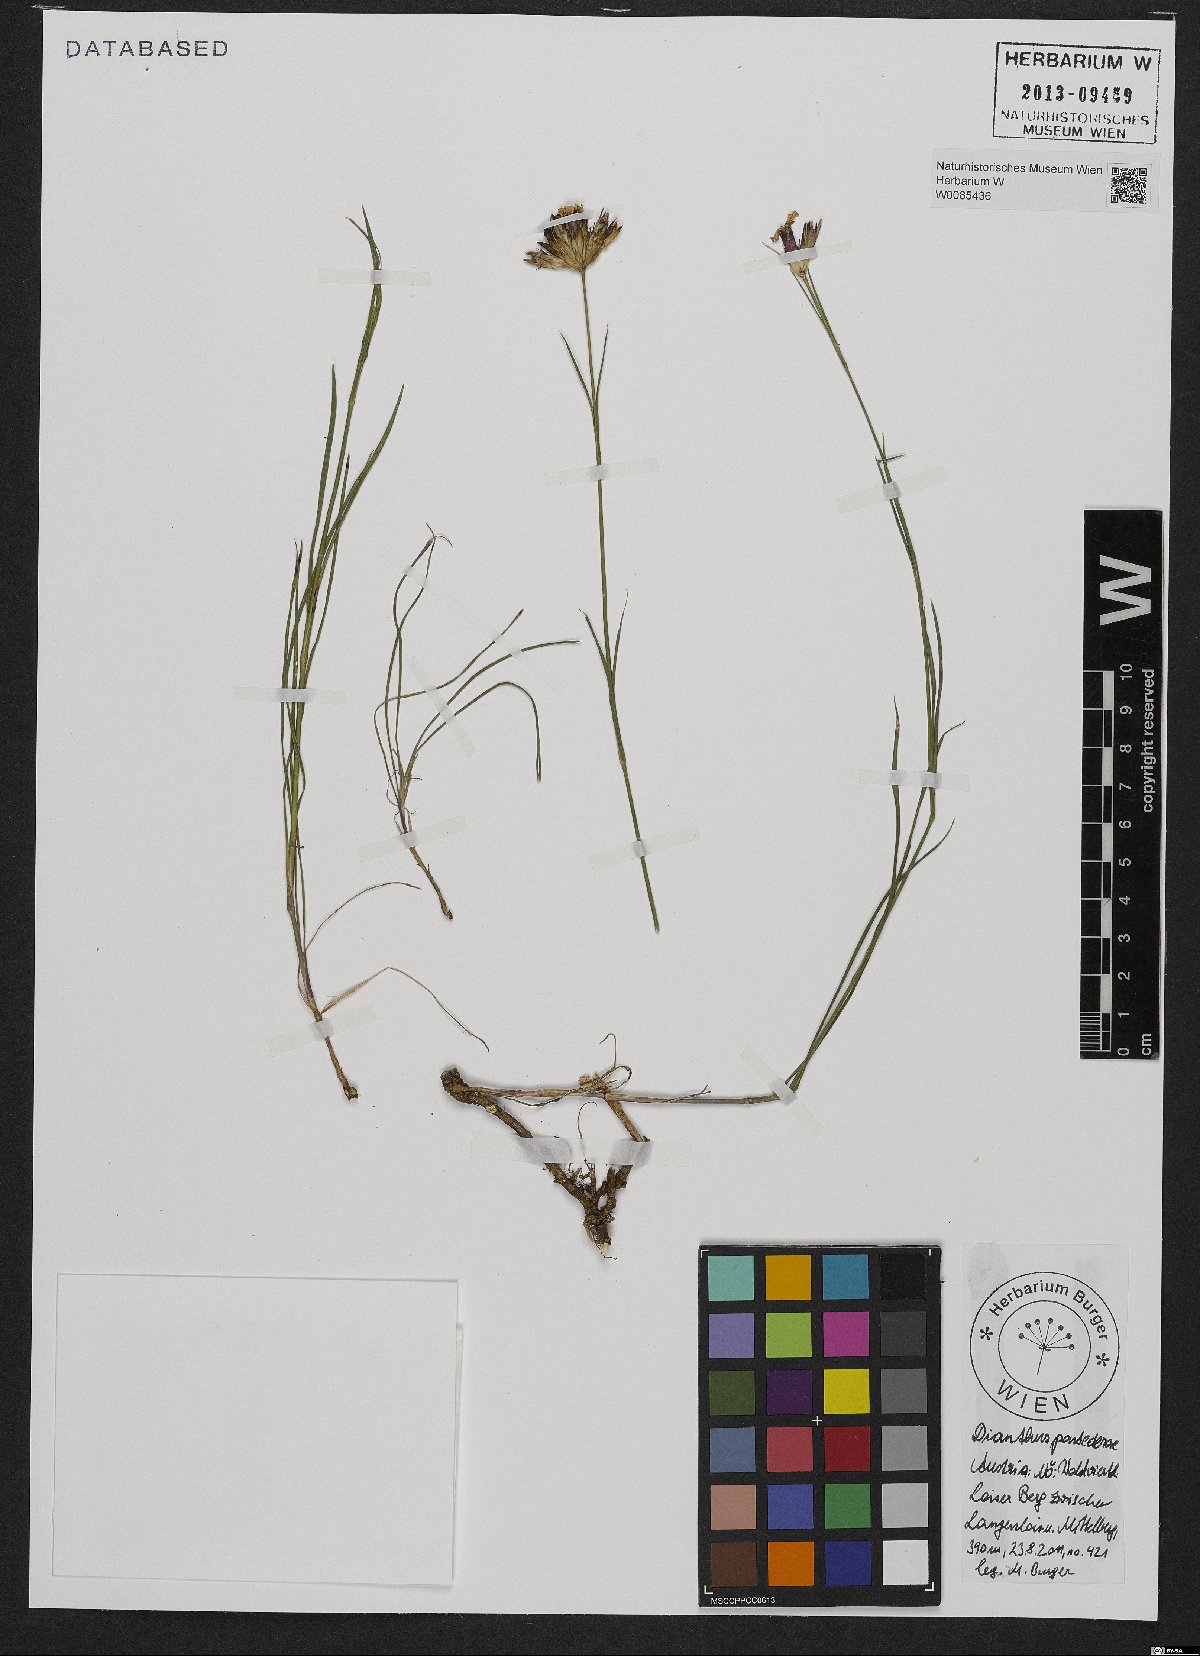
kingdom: Plantae
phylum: Tracheophyta
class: Magnoliopsida
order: Caryophyllales
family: Caryophyllaceae
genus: Dianthus
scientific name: Dianthus pontederae
